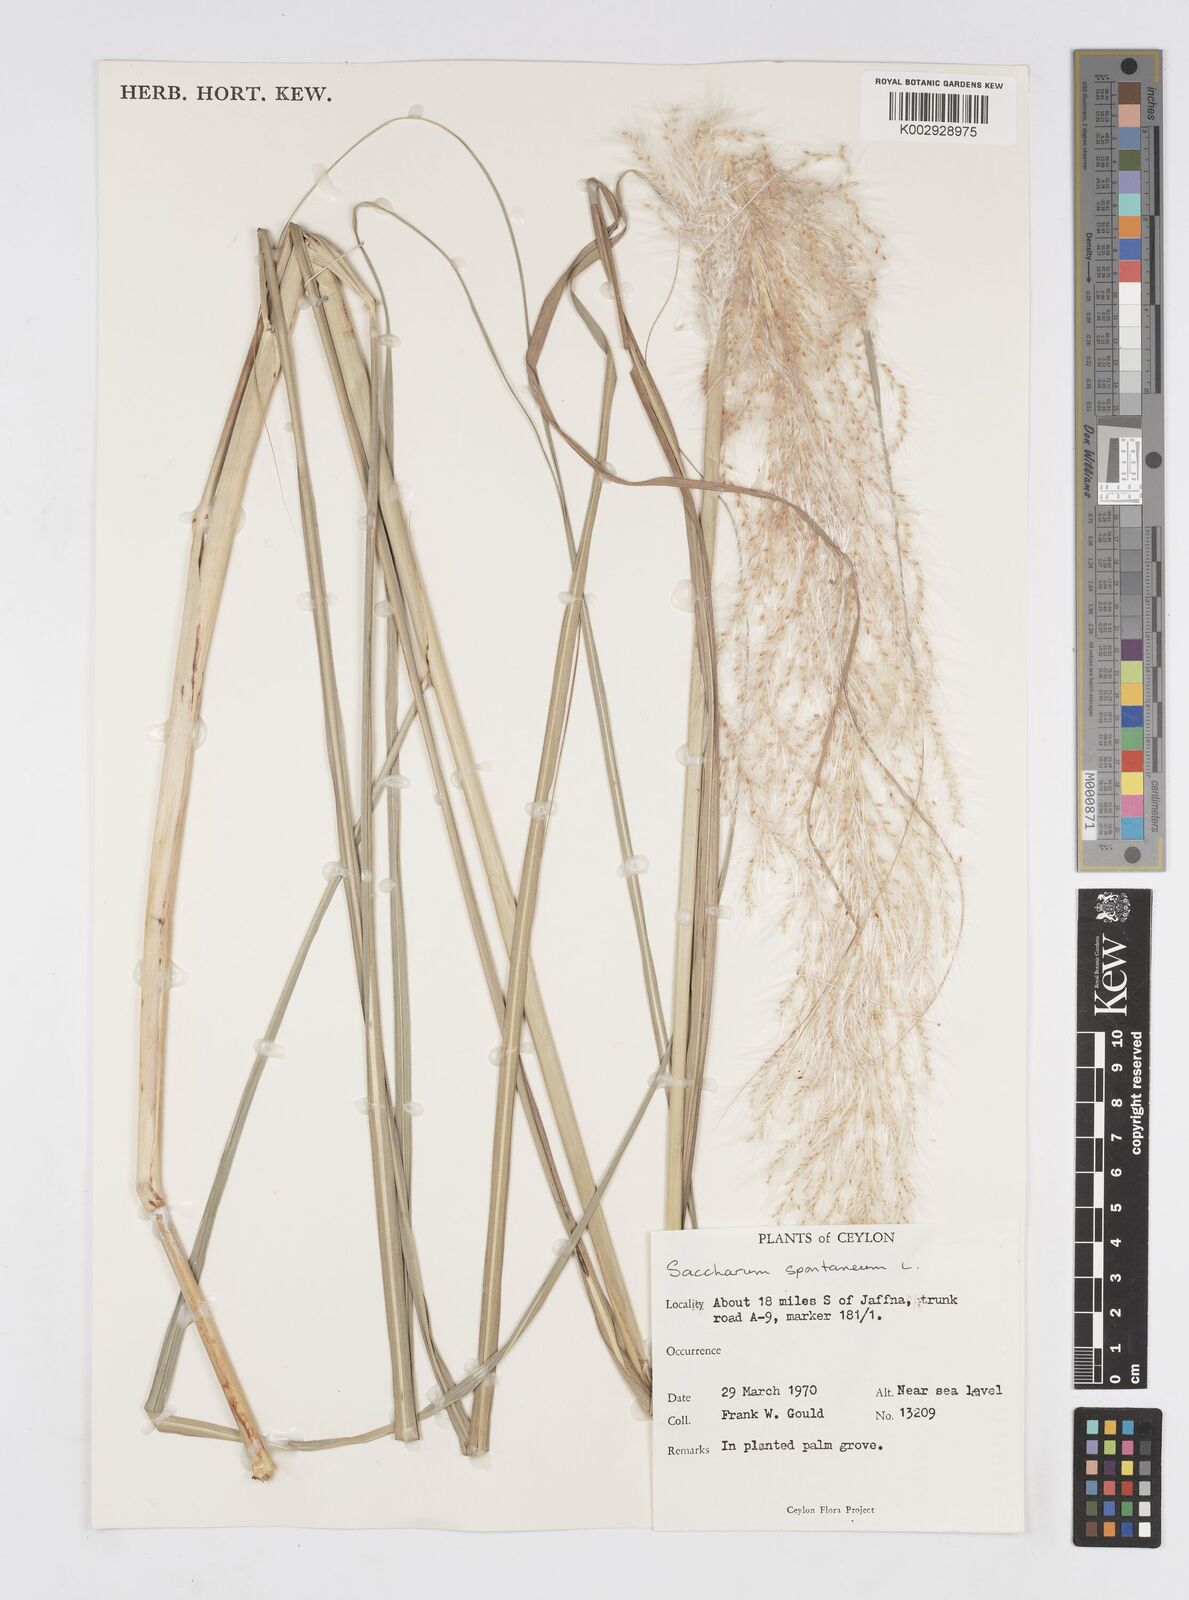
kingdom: Plantae
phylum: Tracheophyta
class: Liliopsida
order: Poales
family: Poaceae
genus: Saccharum
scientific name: Saccharum spontaneum
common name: Wild sugarcane
